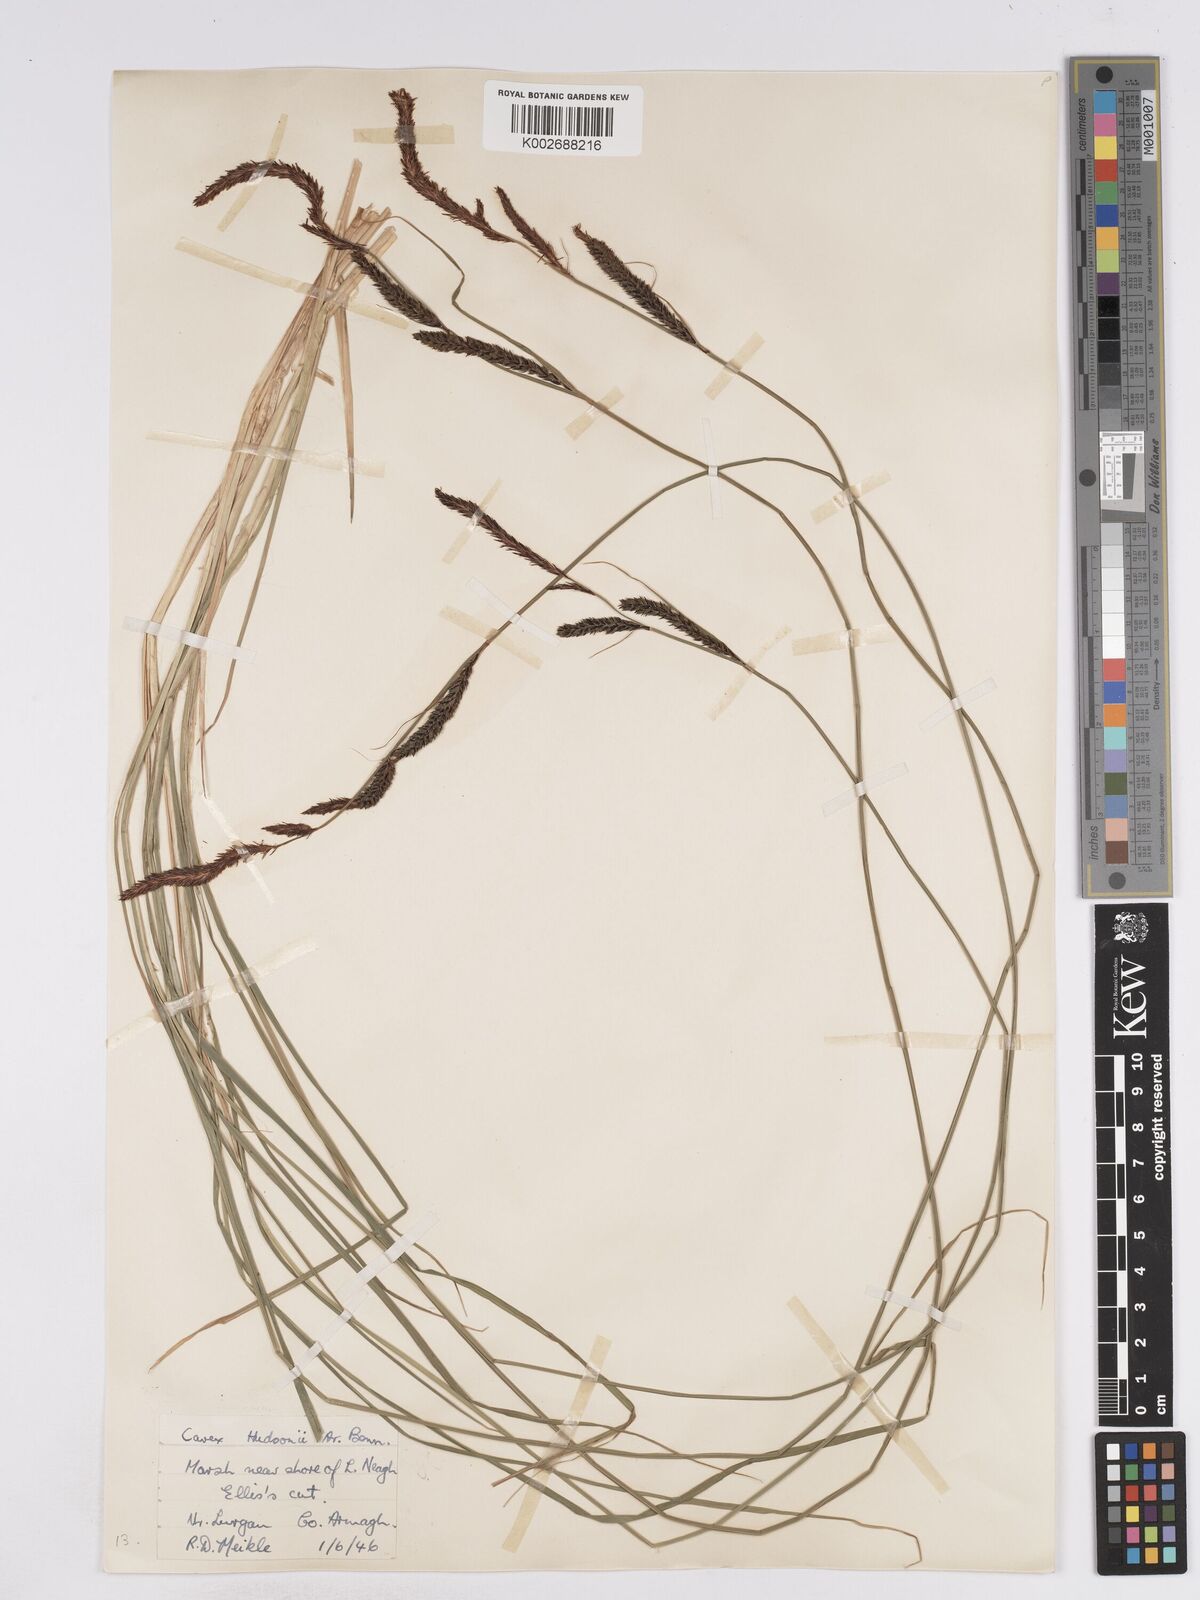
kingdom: Plantae
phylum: Tracheophyta
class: Liliopsida
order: Poales
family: Cyperaceae
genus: Carex
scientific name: Carex elata
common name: Tufted sedge
